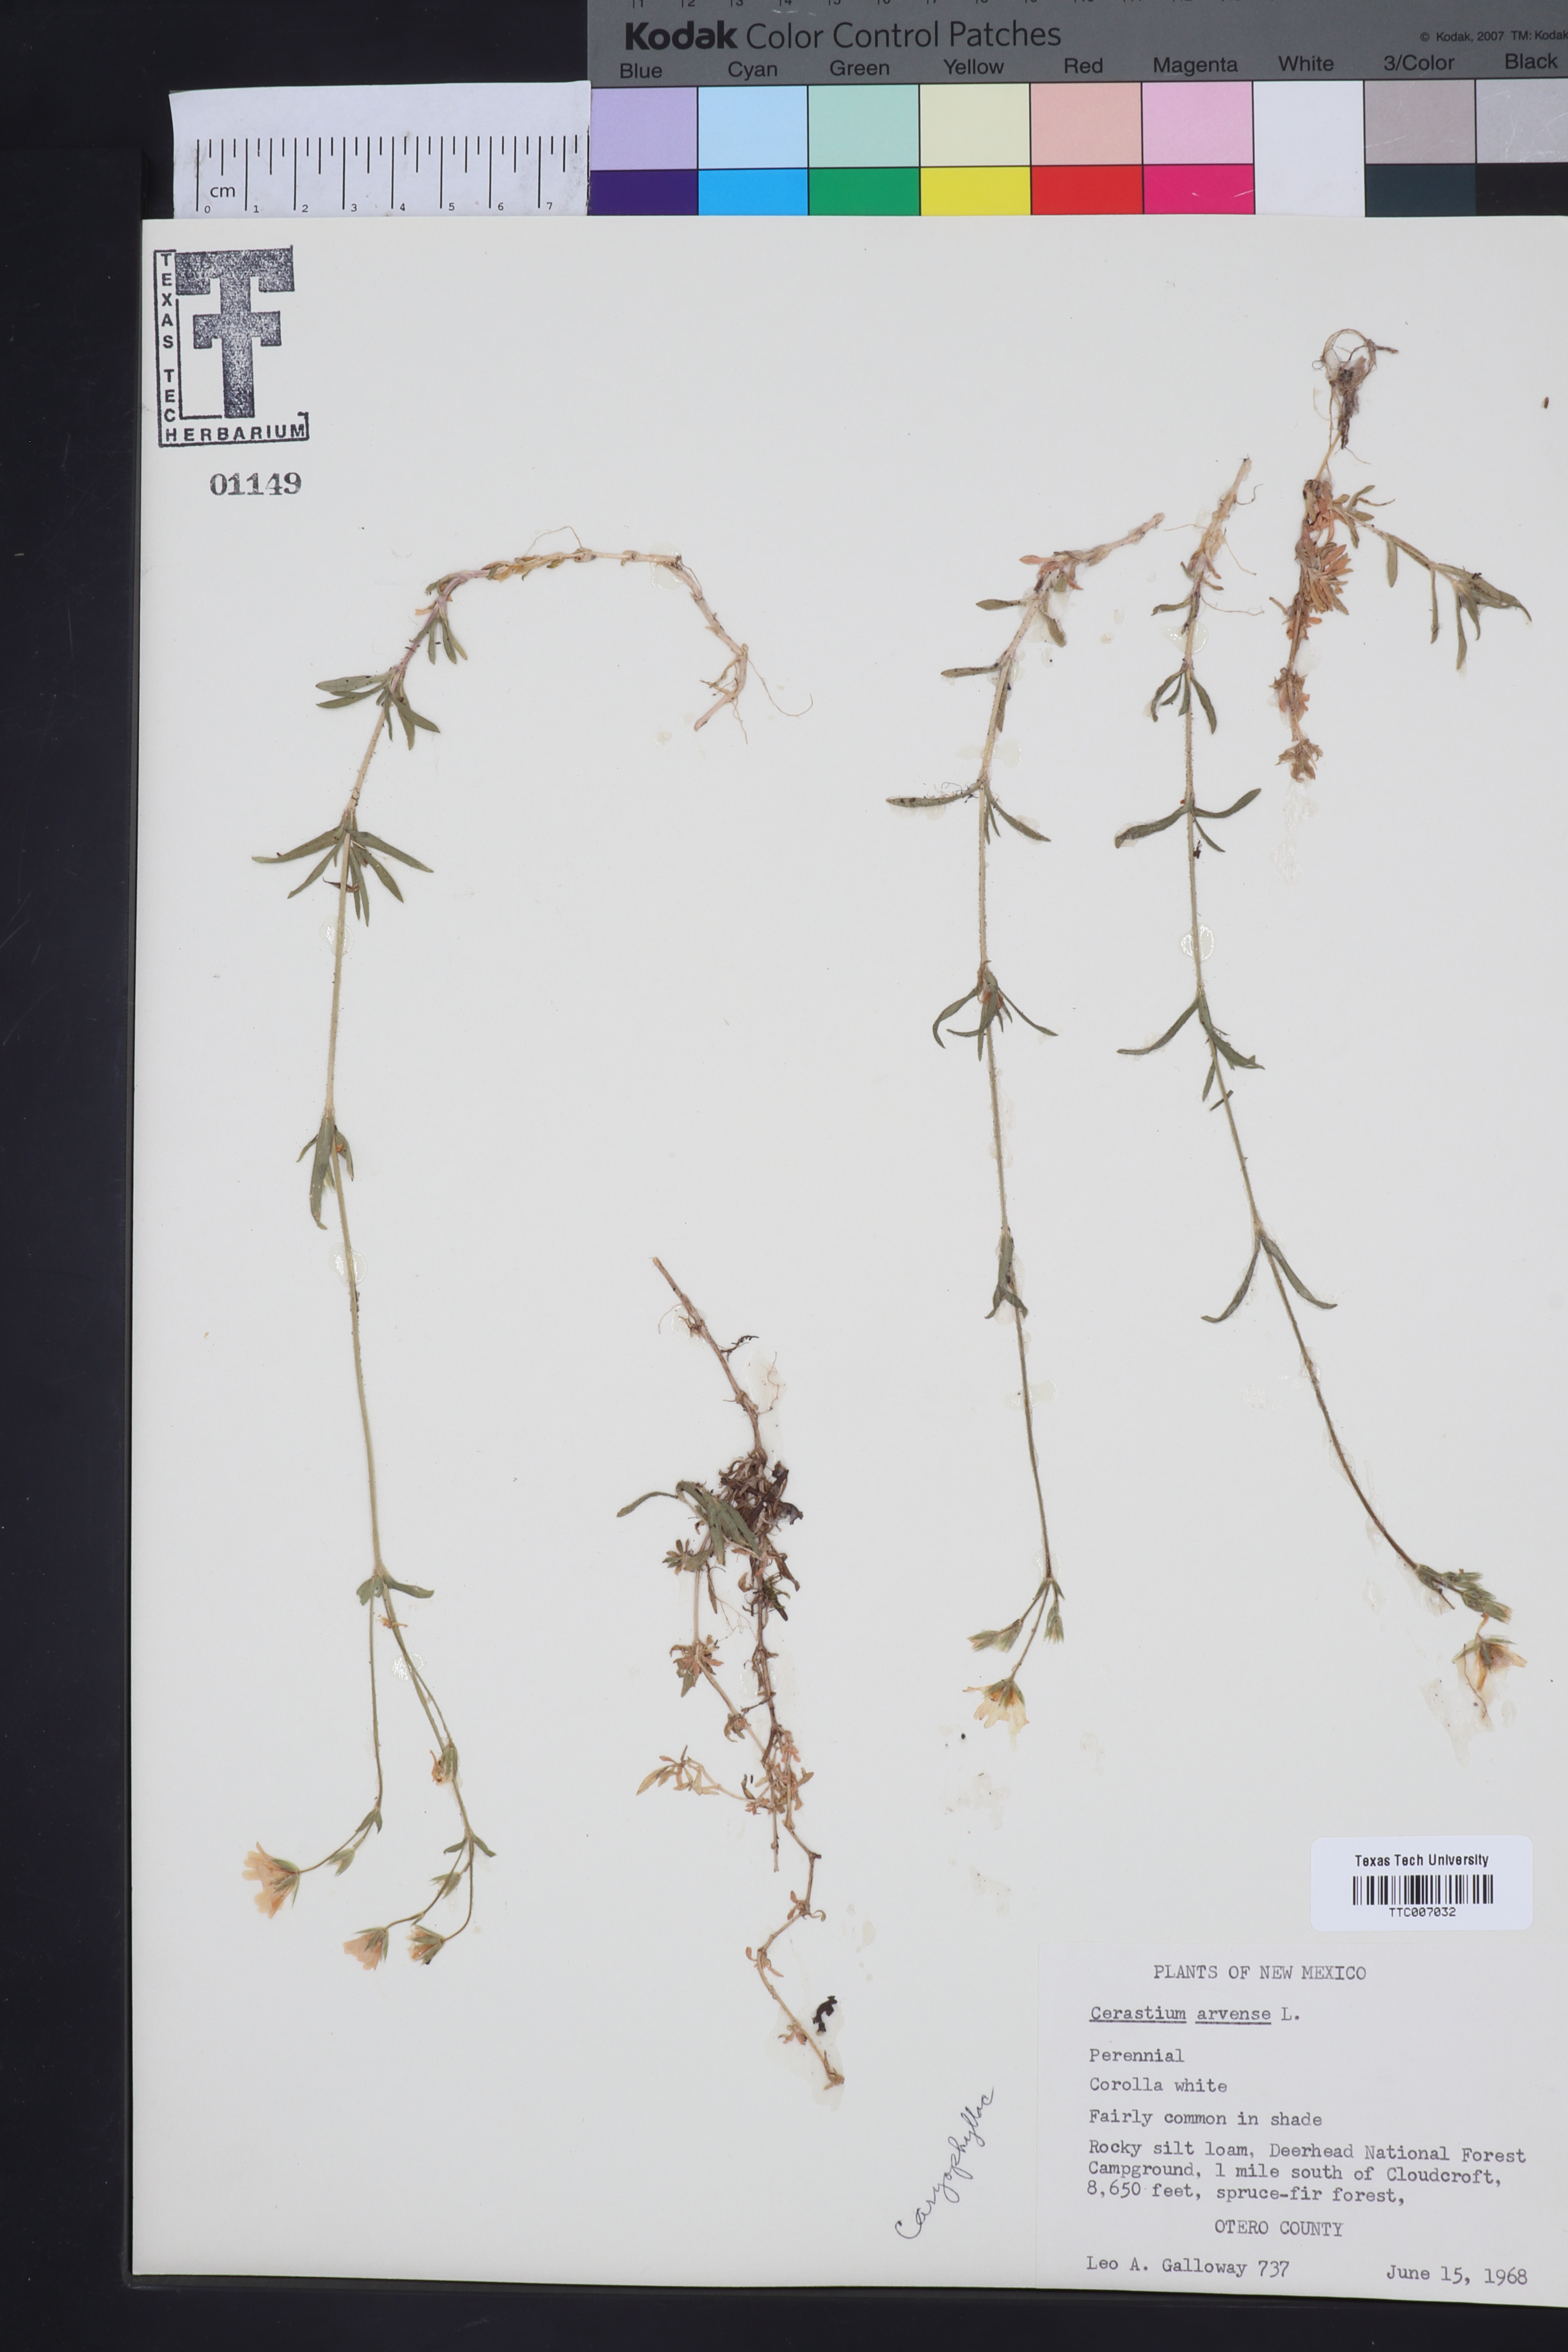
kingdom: Plantae
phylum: Tracheophyta
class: Magnoliopsida
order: Caryophyllales
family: Caryophyllaceae
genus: Cerastium
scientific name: Cerastium arvense
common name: Field mouse-ear
